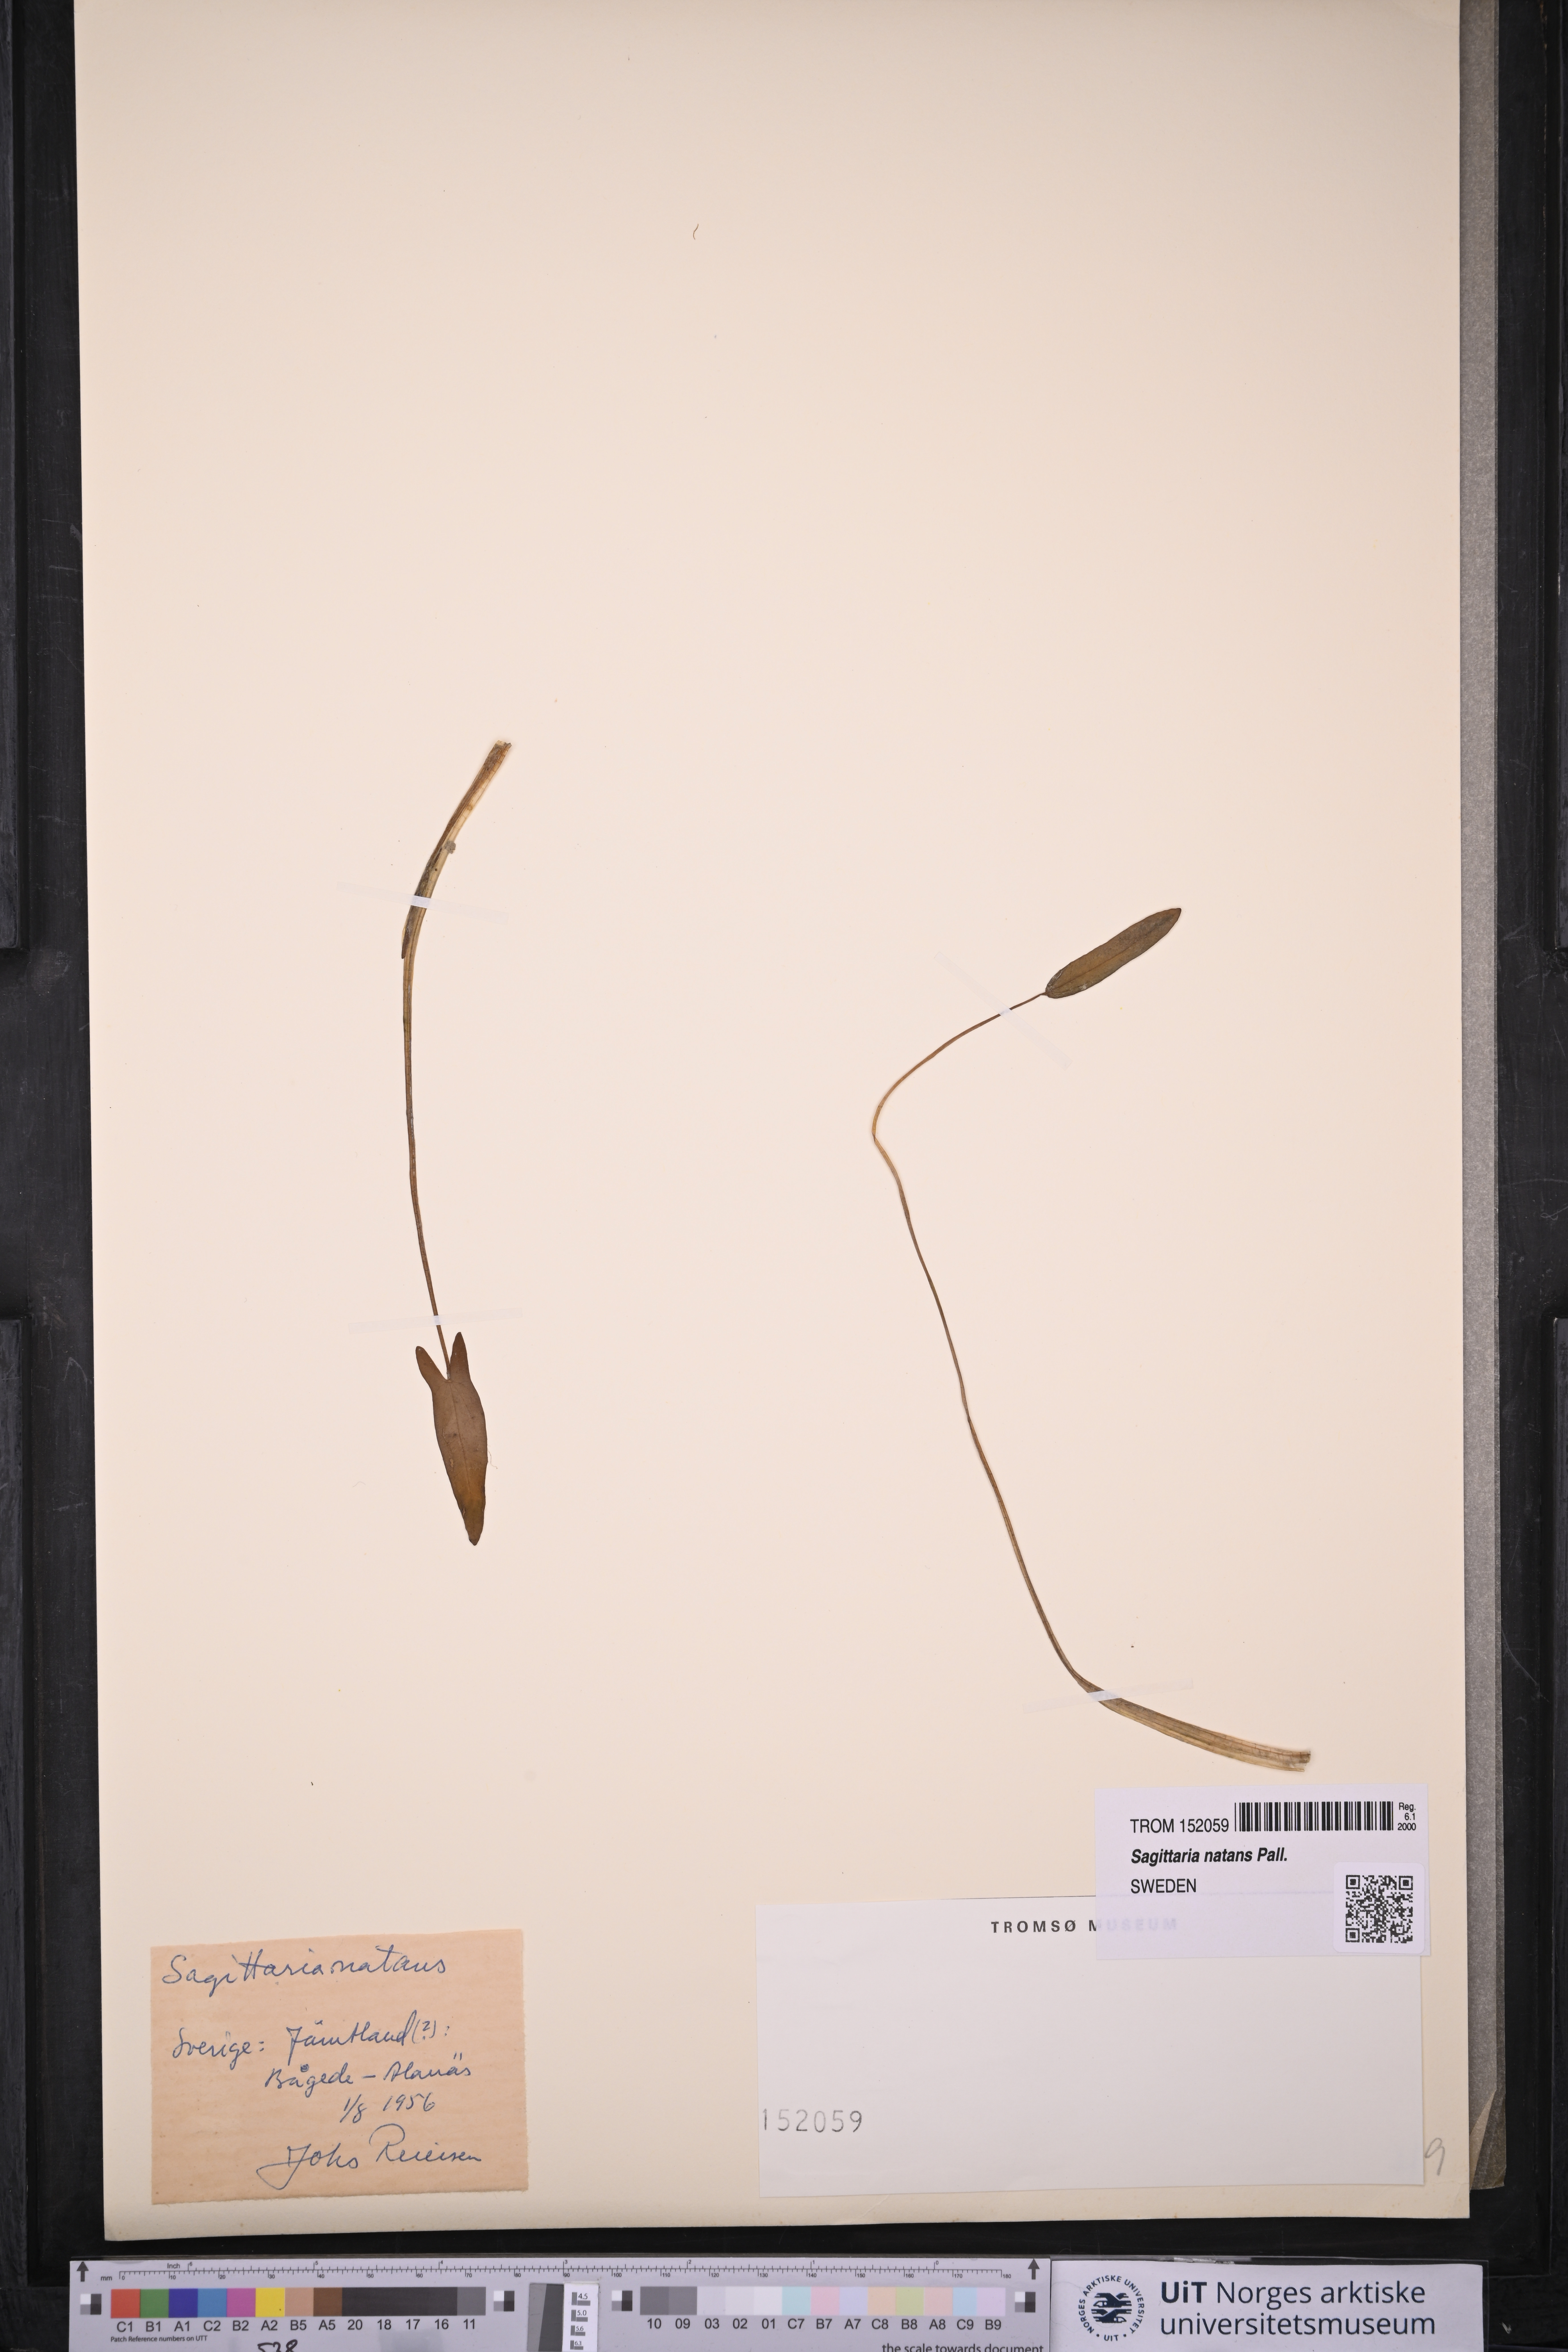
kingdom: Plantae
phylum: Tracheophyta
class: Liliopsida
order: Alismatales
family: Alismataceae
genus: Sagittaria
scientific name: Sagittaria natans
